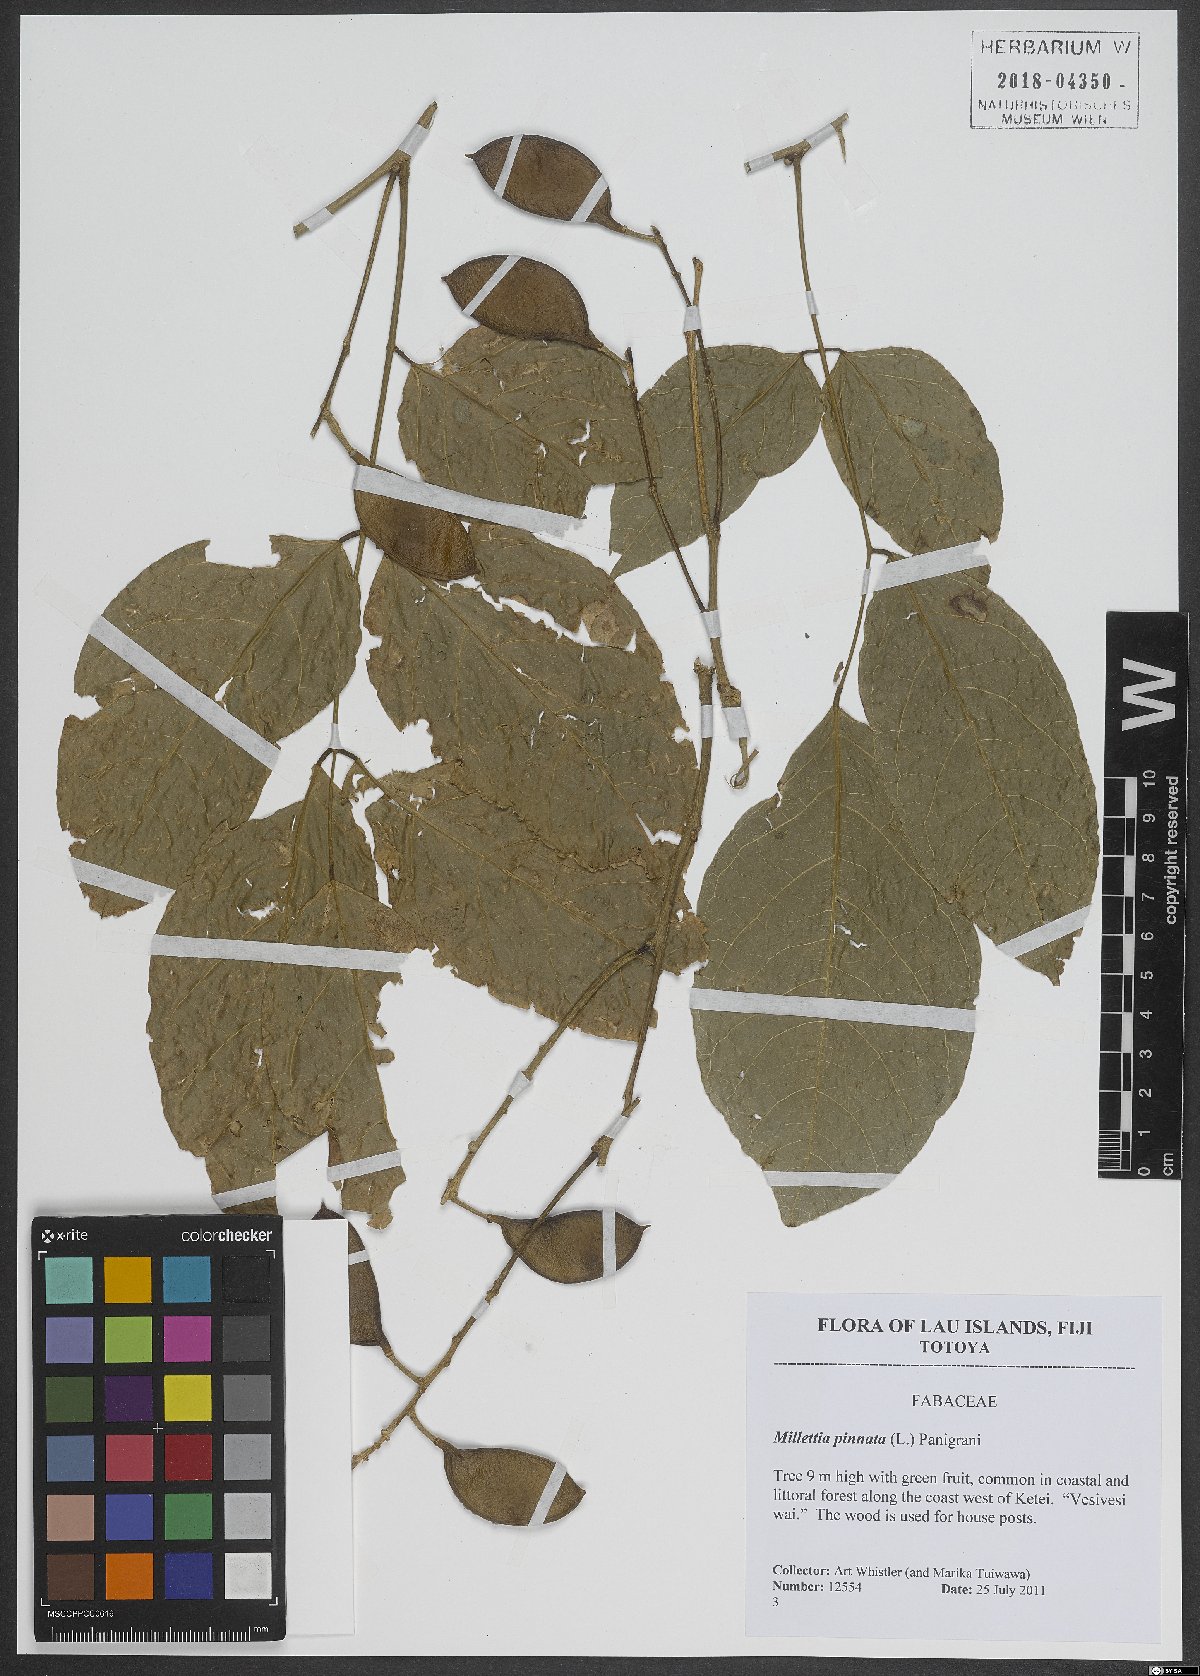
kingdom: Plantae
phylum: Tracheophyta
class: Magnoliopsida
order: Fabales
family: Fabaceae
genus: Pongamia
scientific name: Pongamia pinnata
